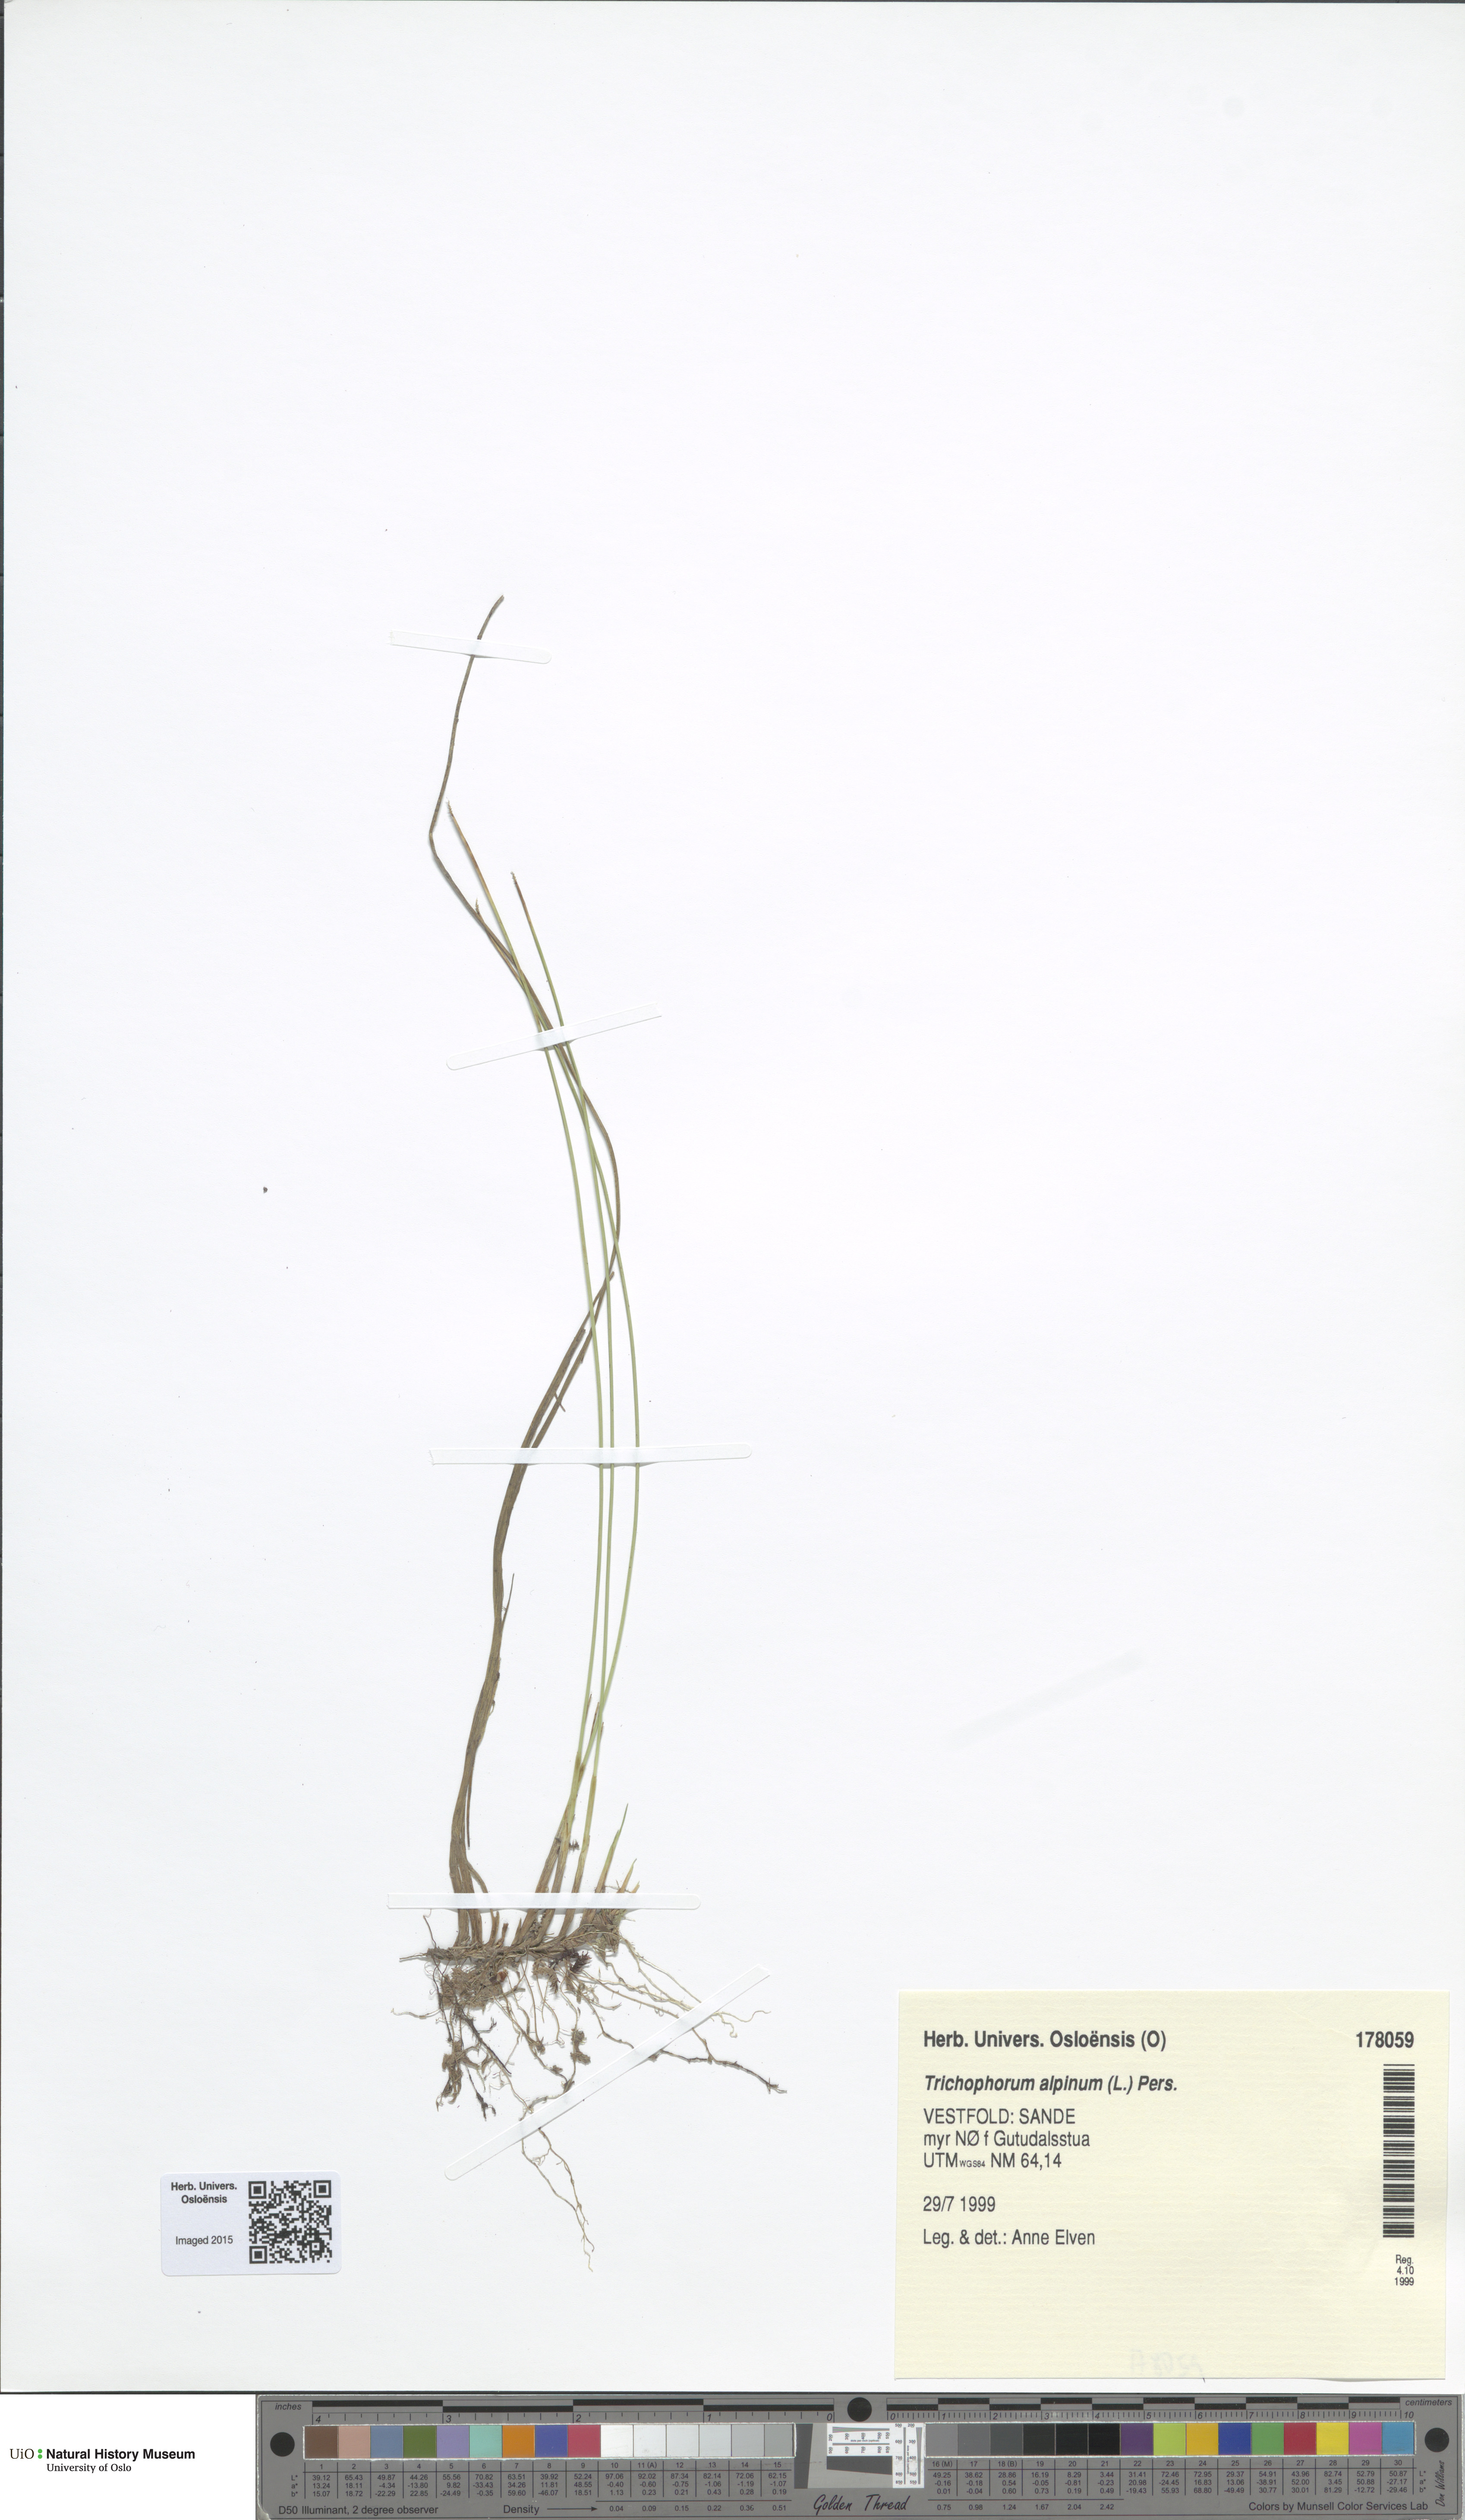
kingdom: Plantae
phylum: Tracheophyta
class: Liliopsida
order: Poales
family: Cyperaceae
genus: Trichophorum
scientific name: Trichophorum alpinum
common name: Alpine bulrush
